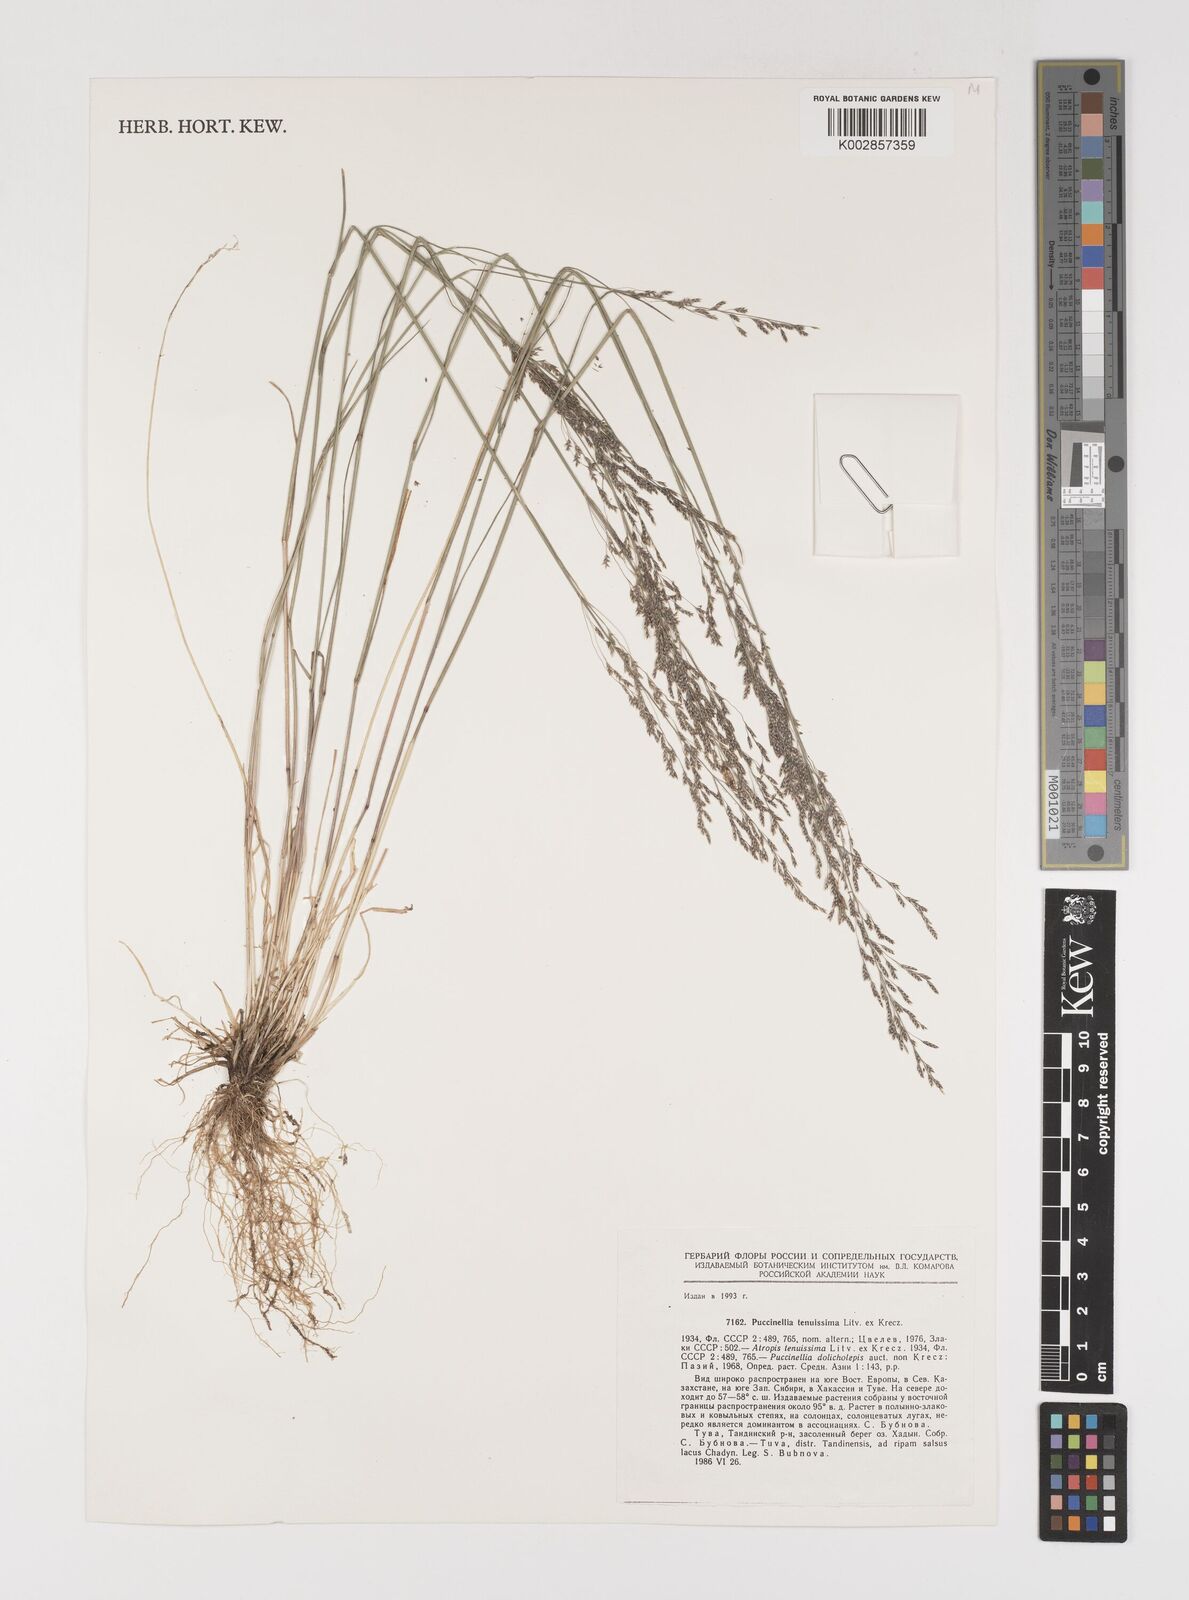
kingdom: Plantae
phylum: Tracheophyta
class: Liliopsida
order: Poales
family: Poaceae
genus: Puccinellia
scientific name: Puccinellia tenuissima
